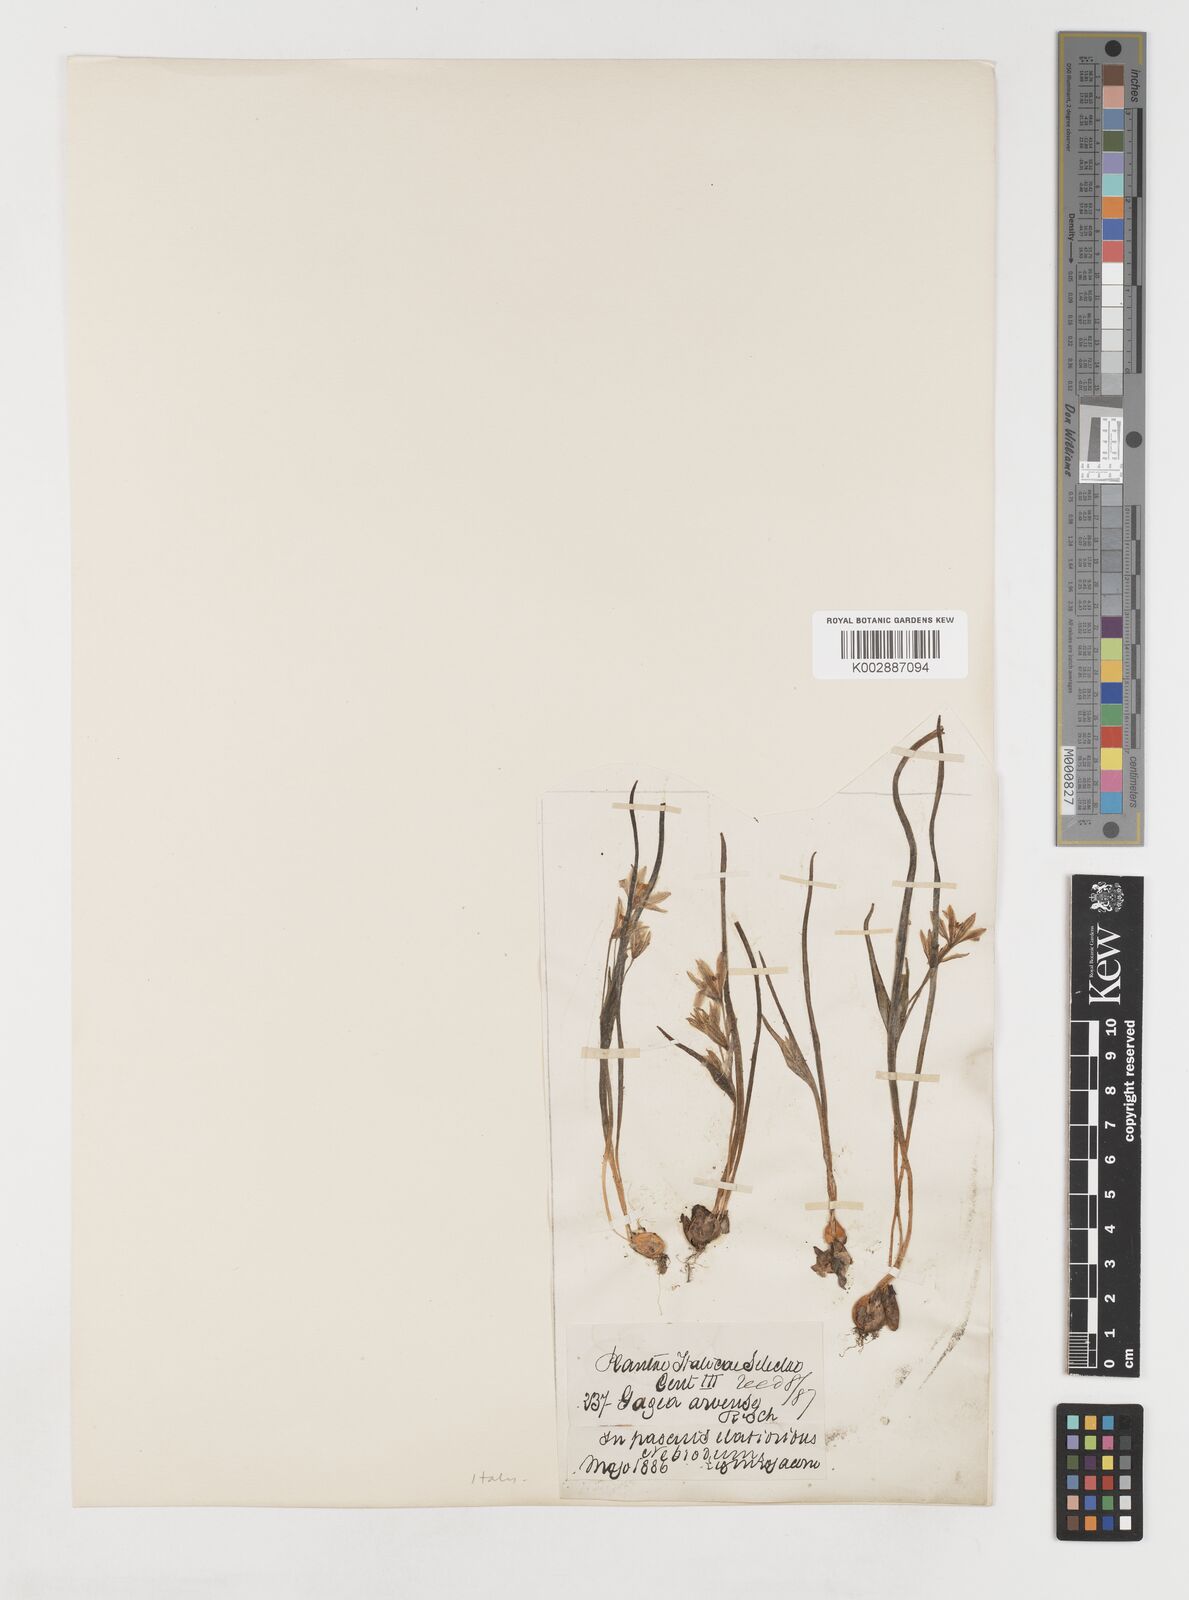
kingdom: Plantae
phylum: Tracheophyta
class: Liliopsida
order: Liliales
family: Liliaceae
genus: Gagea
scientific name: Gagea minima
